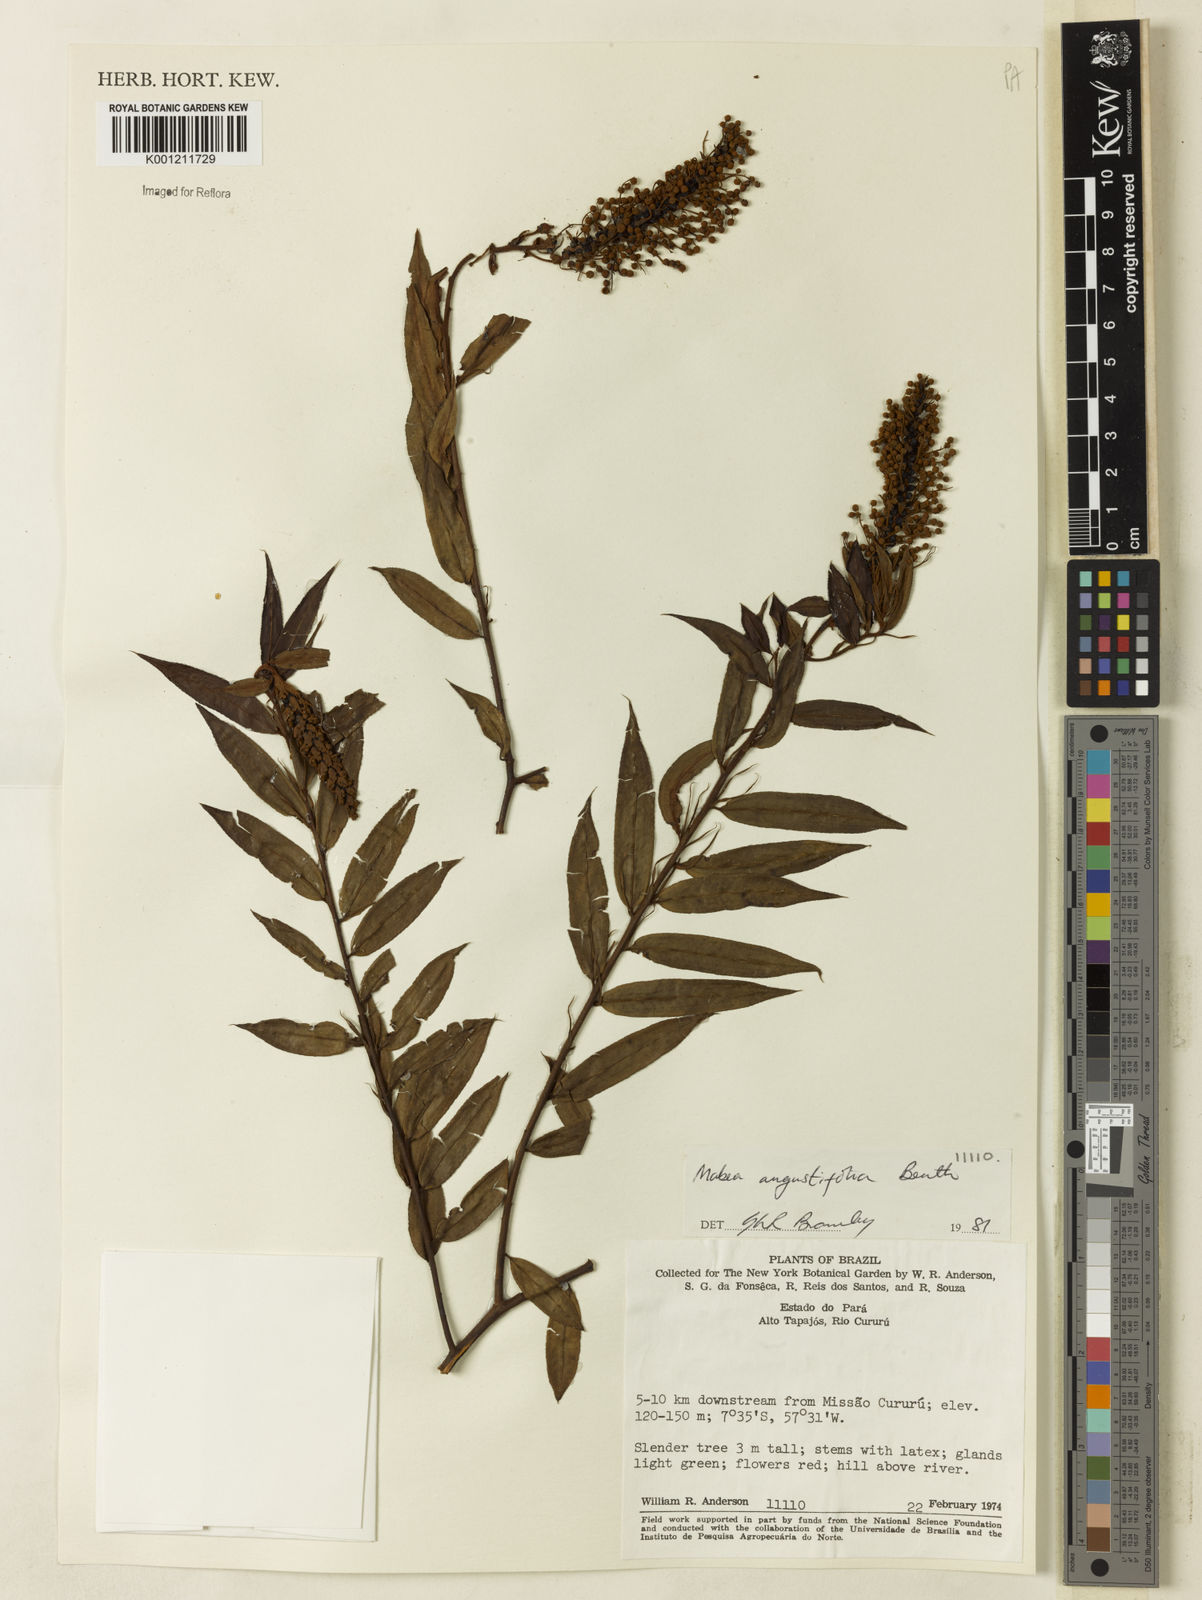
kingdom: Plantae
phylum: Tracheophyta
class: Magnoliopsida
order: Malpighiales
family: Euphorbiaceae
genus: Mabea
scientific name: Mabea angustifolia
